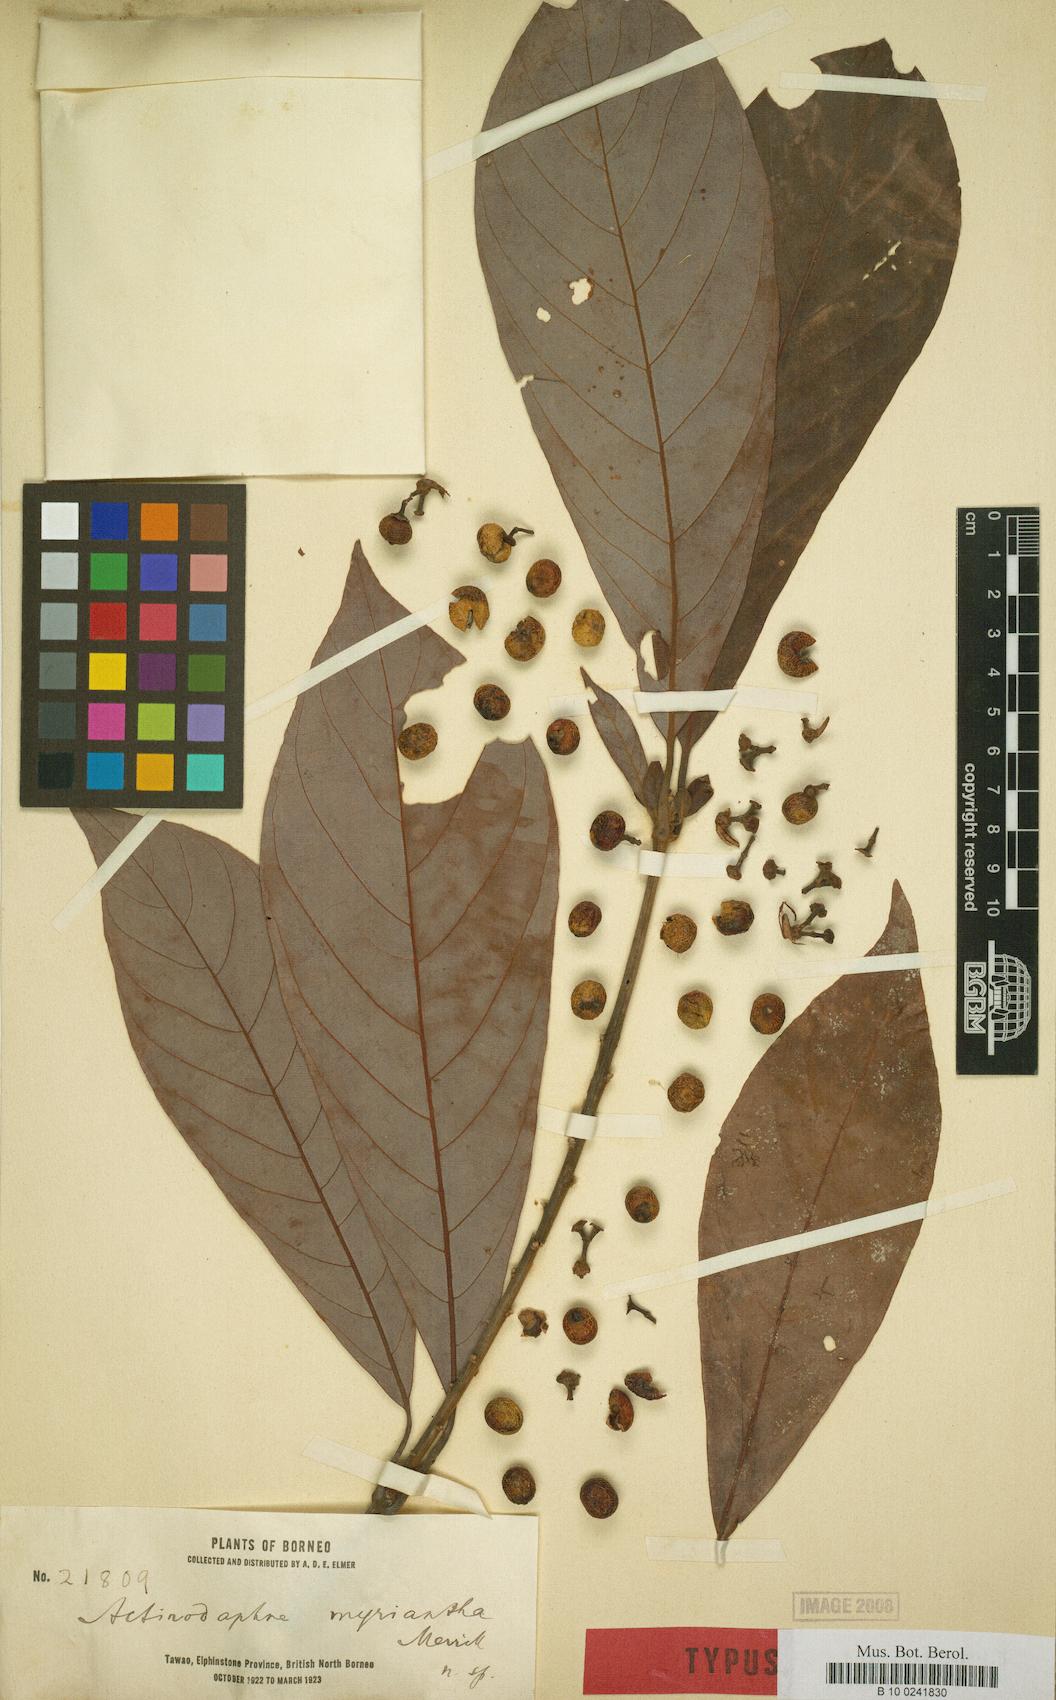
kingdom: Plantae
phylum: Tracheophyta
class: Magnoliopsida
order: Laurales
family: Lauraceae
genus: Actinodaphne
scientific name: Actinodaphne myriantha
